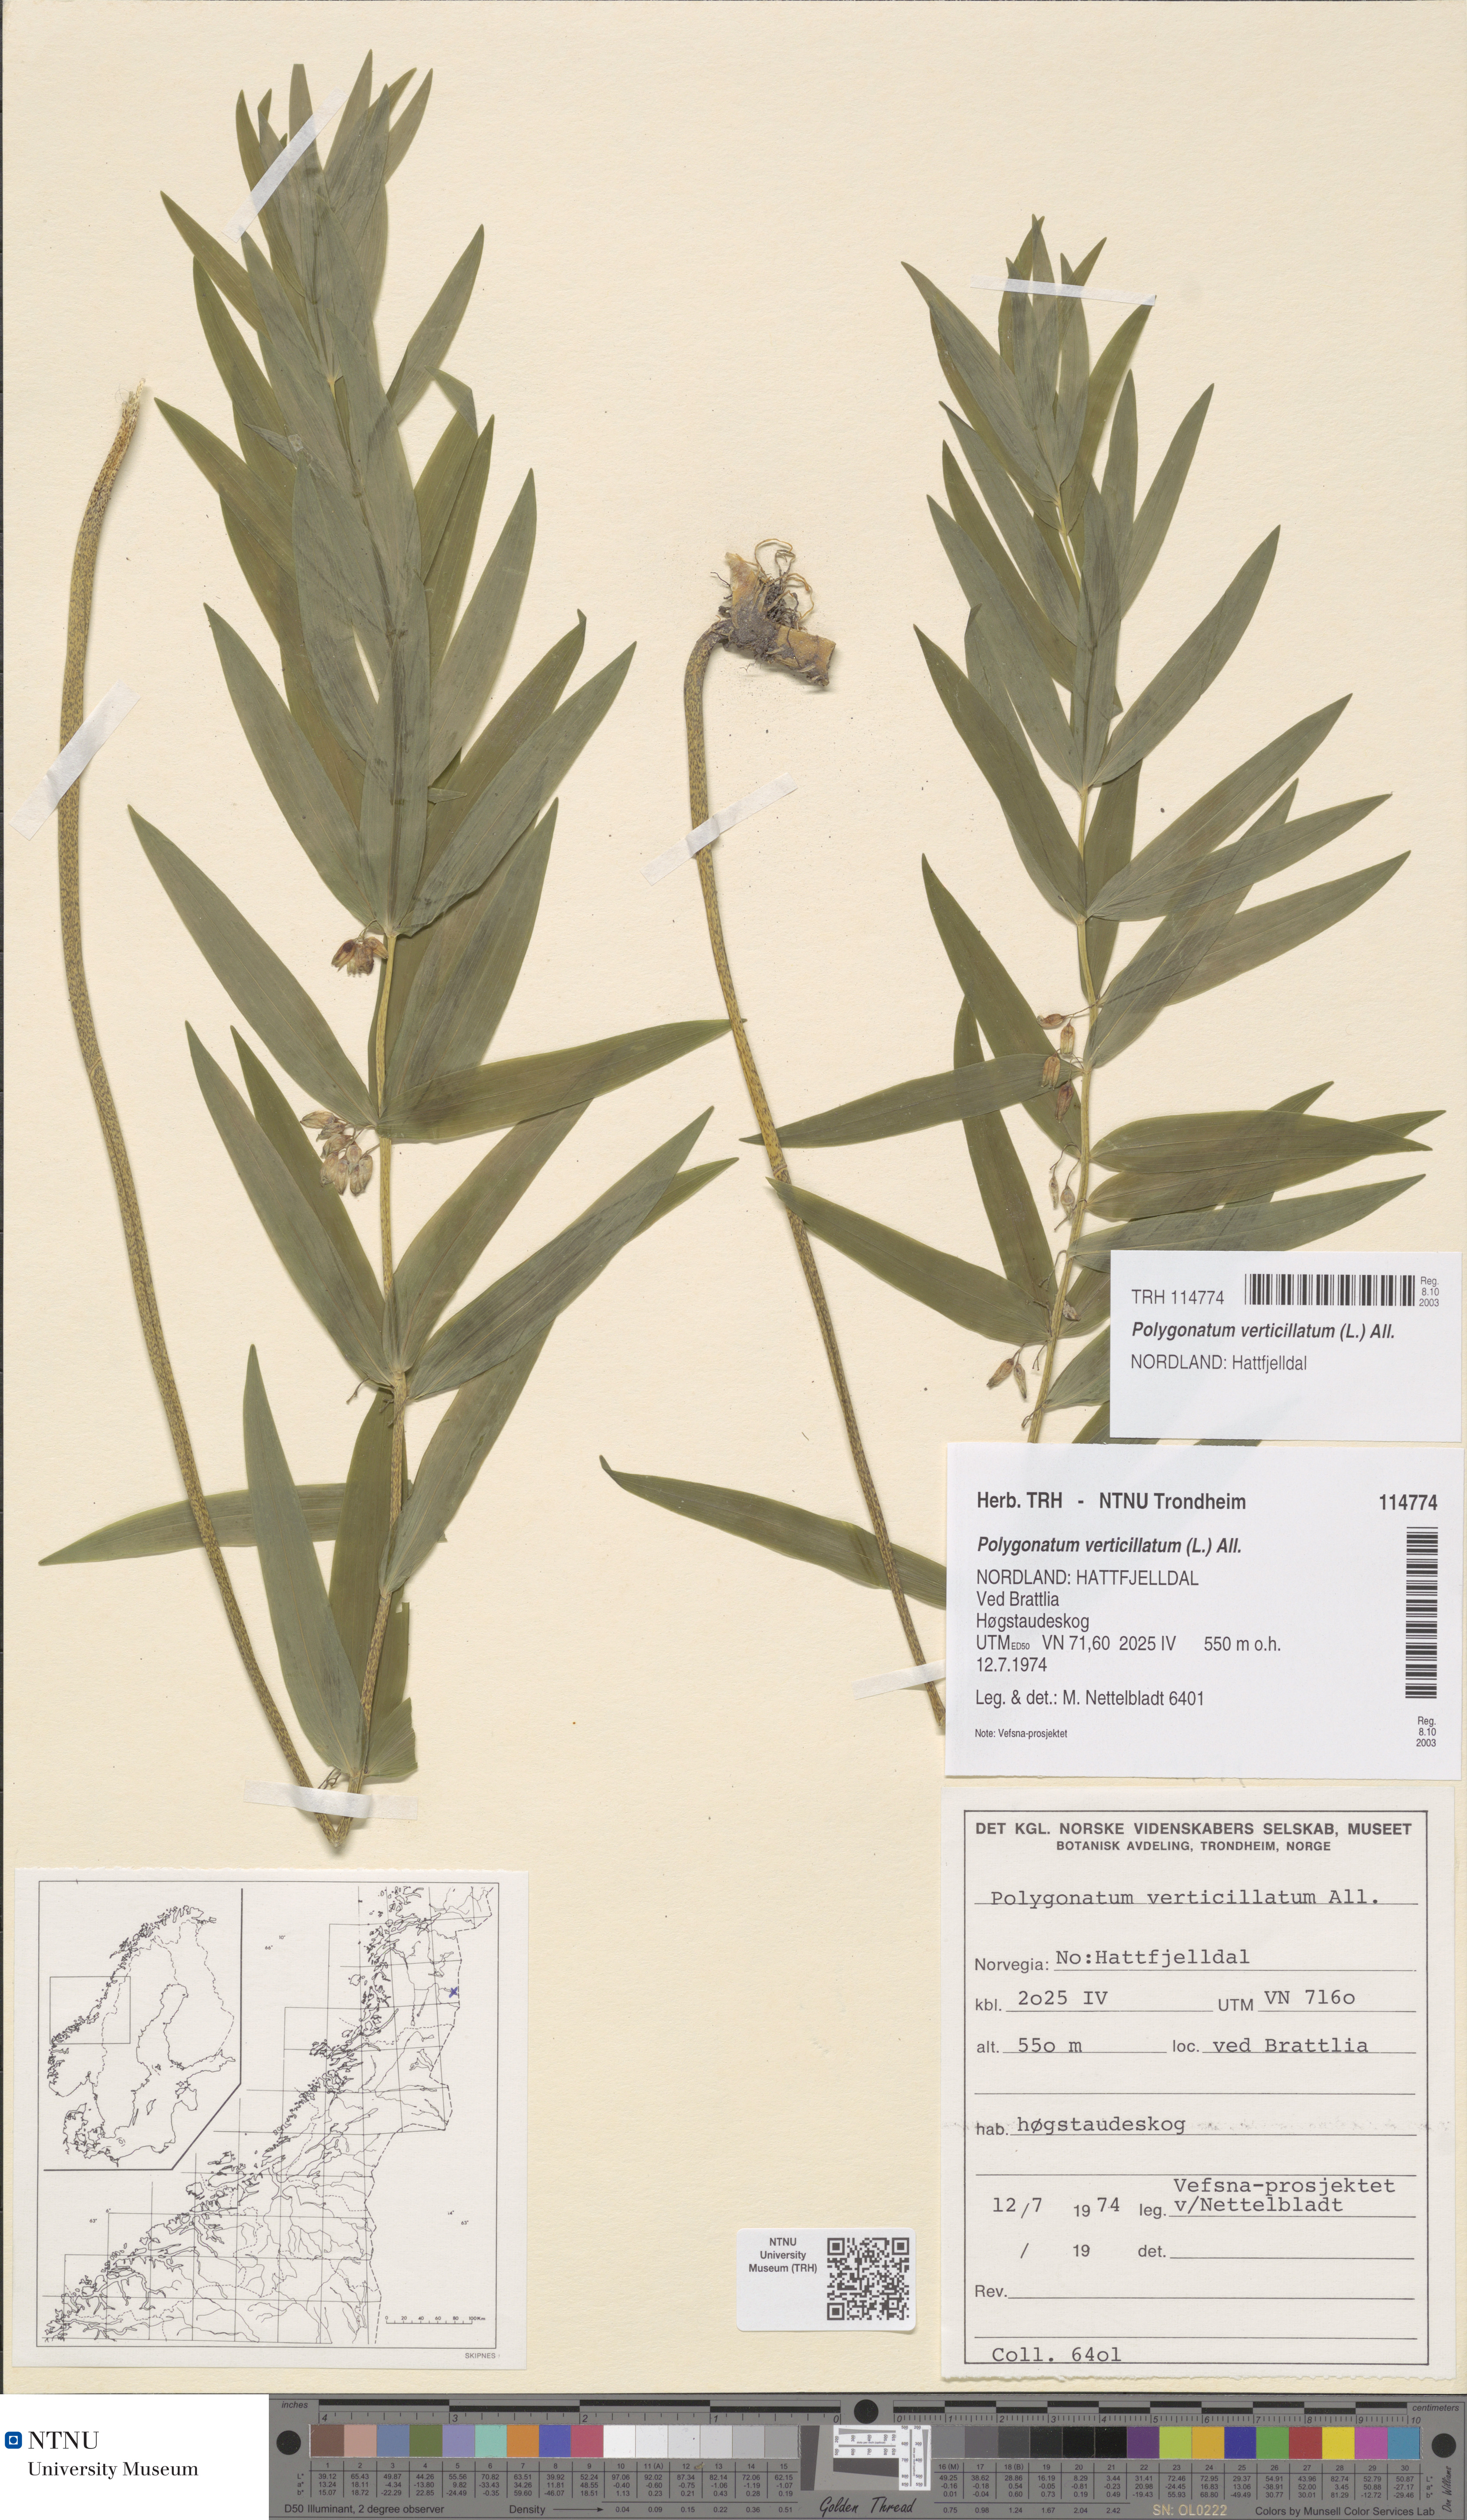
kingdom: Plantae
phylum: Tracheophyta
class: Liliopsida
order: Asparagales
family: Asparagaceae
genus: Polygonatum
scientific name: Polygonatum verticillatum
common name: Whorled solomon's-seal
